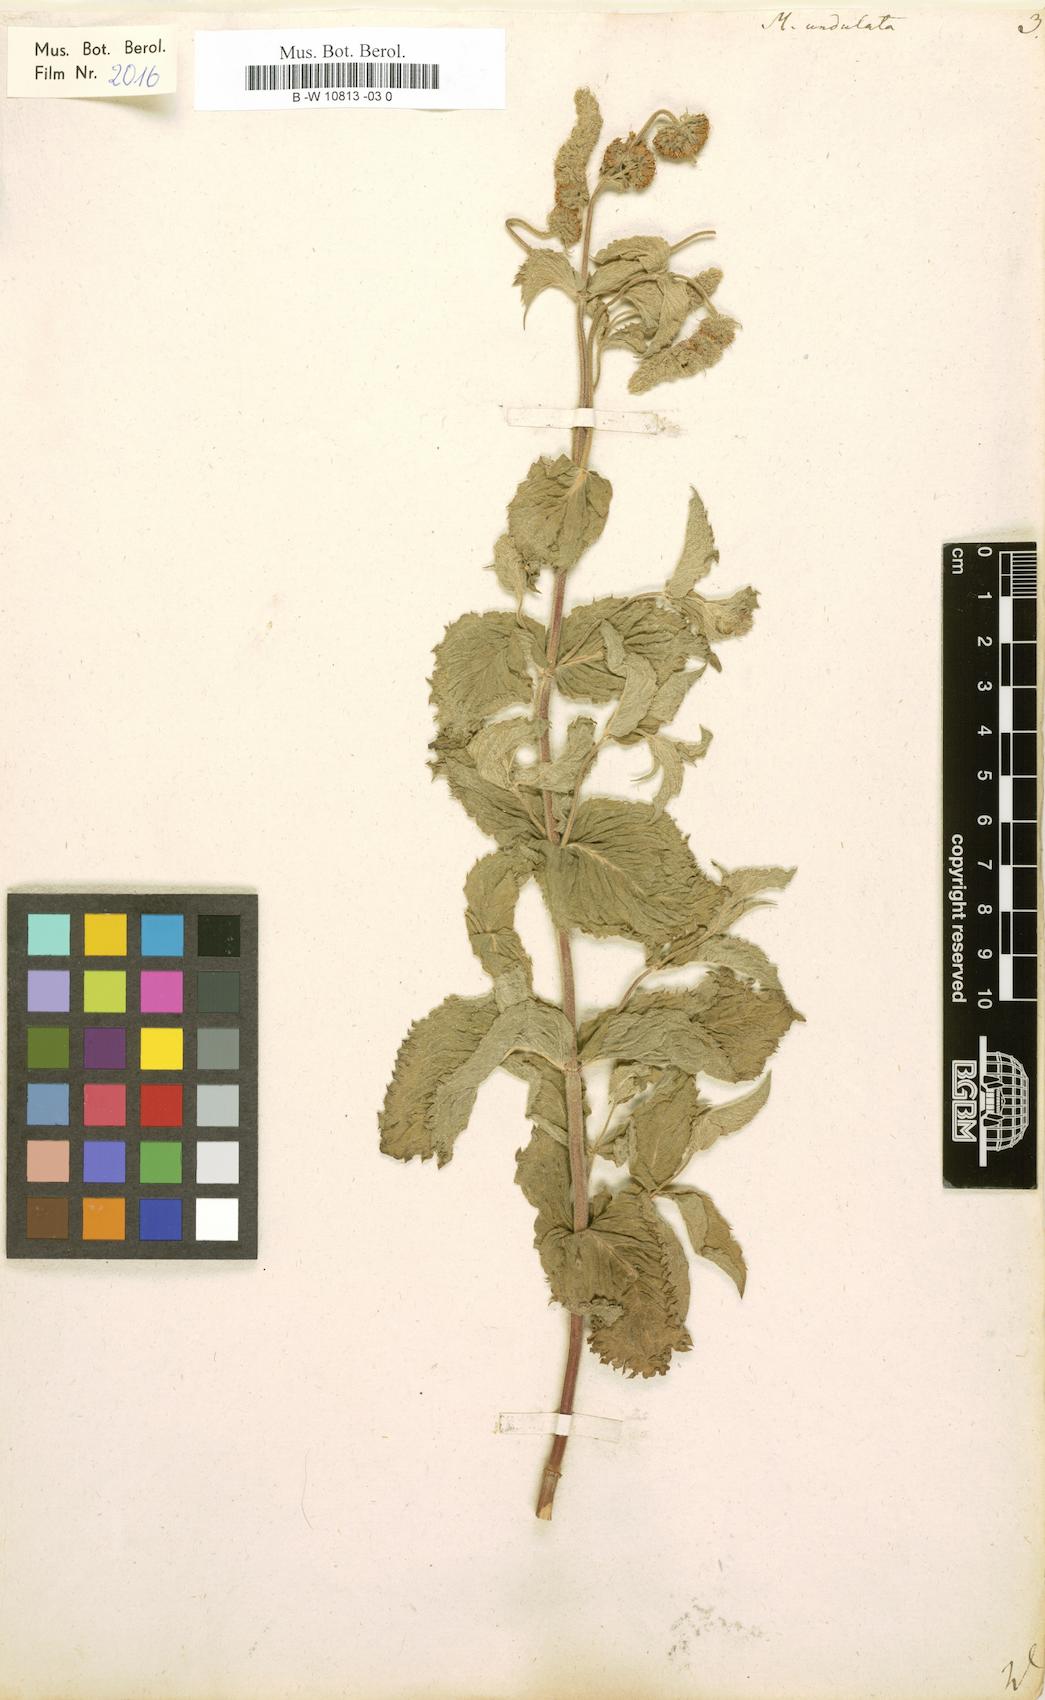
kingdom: Plantae
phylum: Tracheophyta
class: Magnoliopsida
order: Lamiales
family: Lamiaceae
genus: Mentha
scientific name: Mentha spicata
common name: Spearmint
